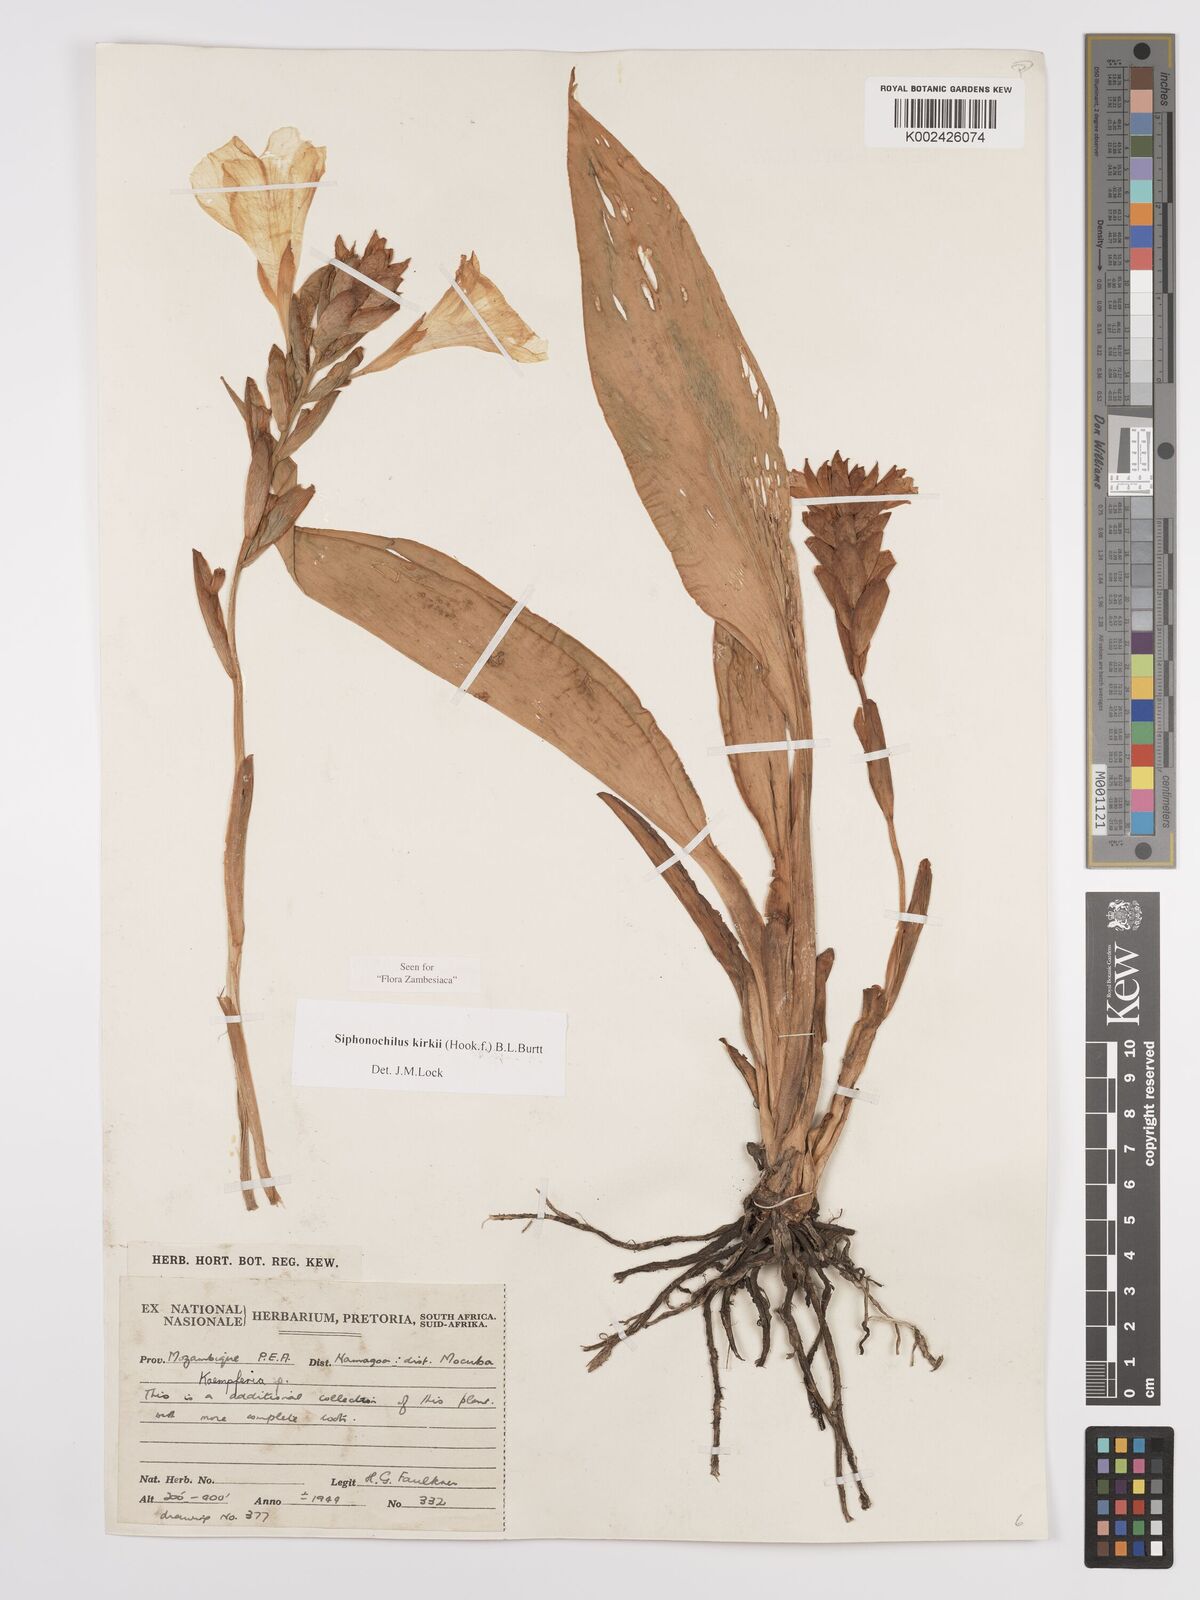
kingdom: Plantae
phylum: Tracheophyta
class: Liliopsida
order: Zingiberales
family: Zingiberaceae
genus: Siphonochilus
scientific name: Siphonochilus kirkii
